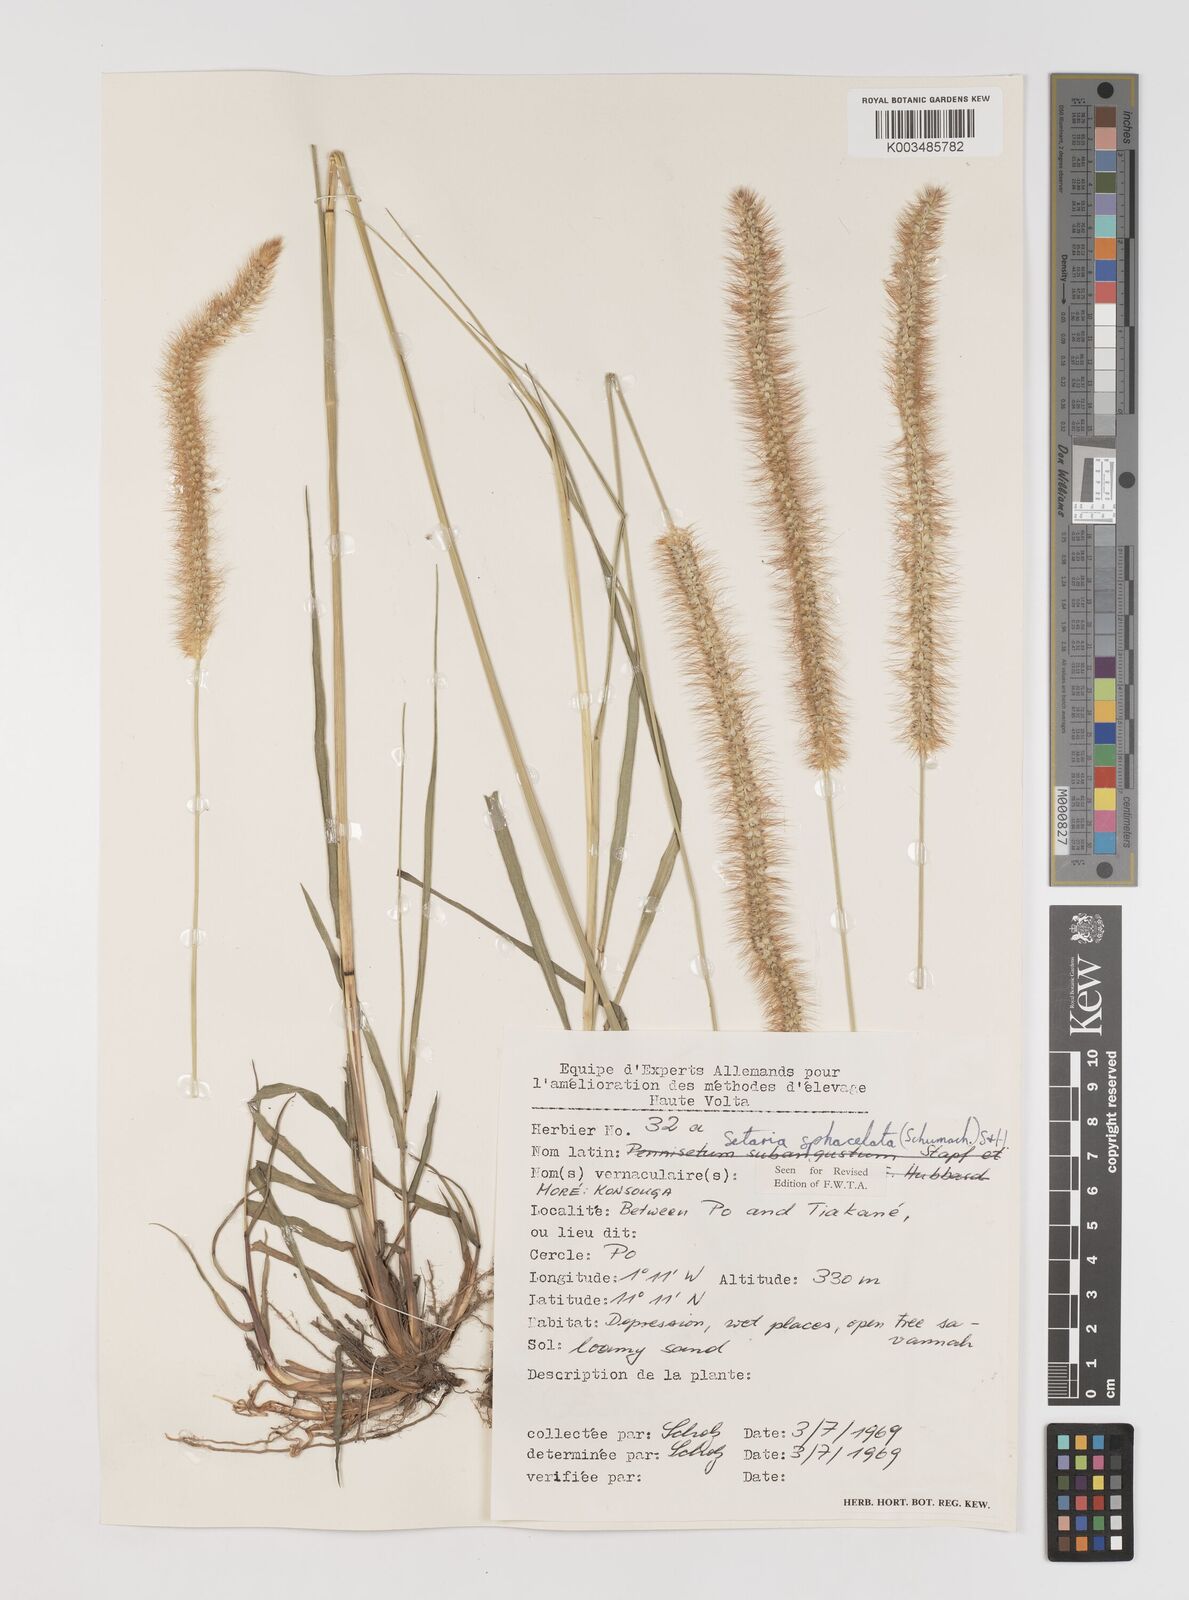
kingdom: Plantae
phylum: Tracheophyta
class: Liliopsida
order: Poales
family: Poaceae
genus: Setaria
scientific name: Setaria sphacelata
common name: African bristlegrass
